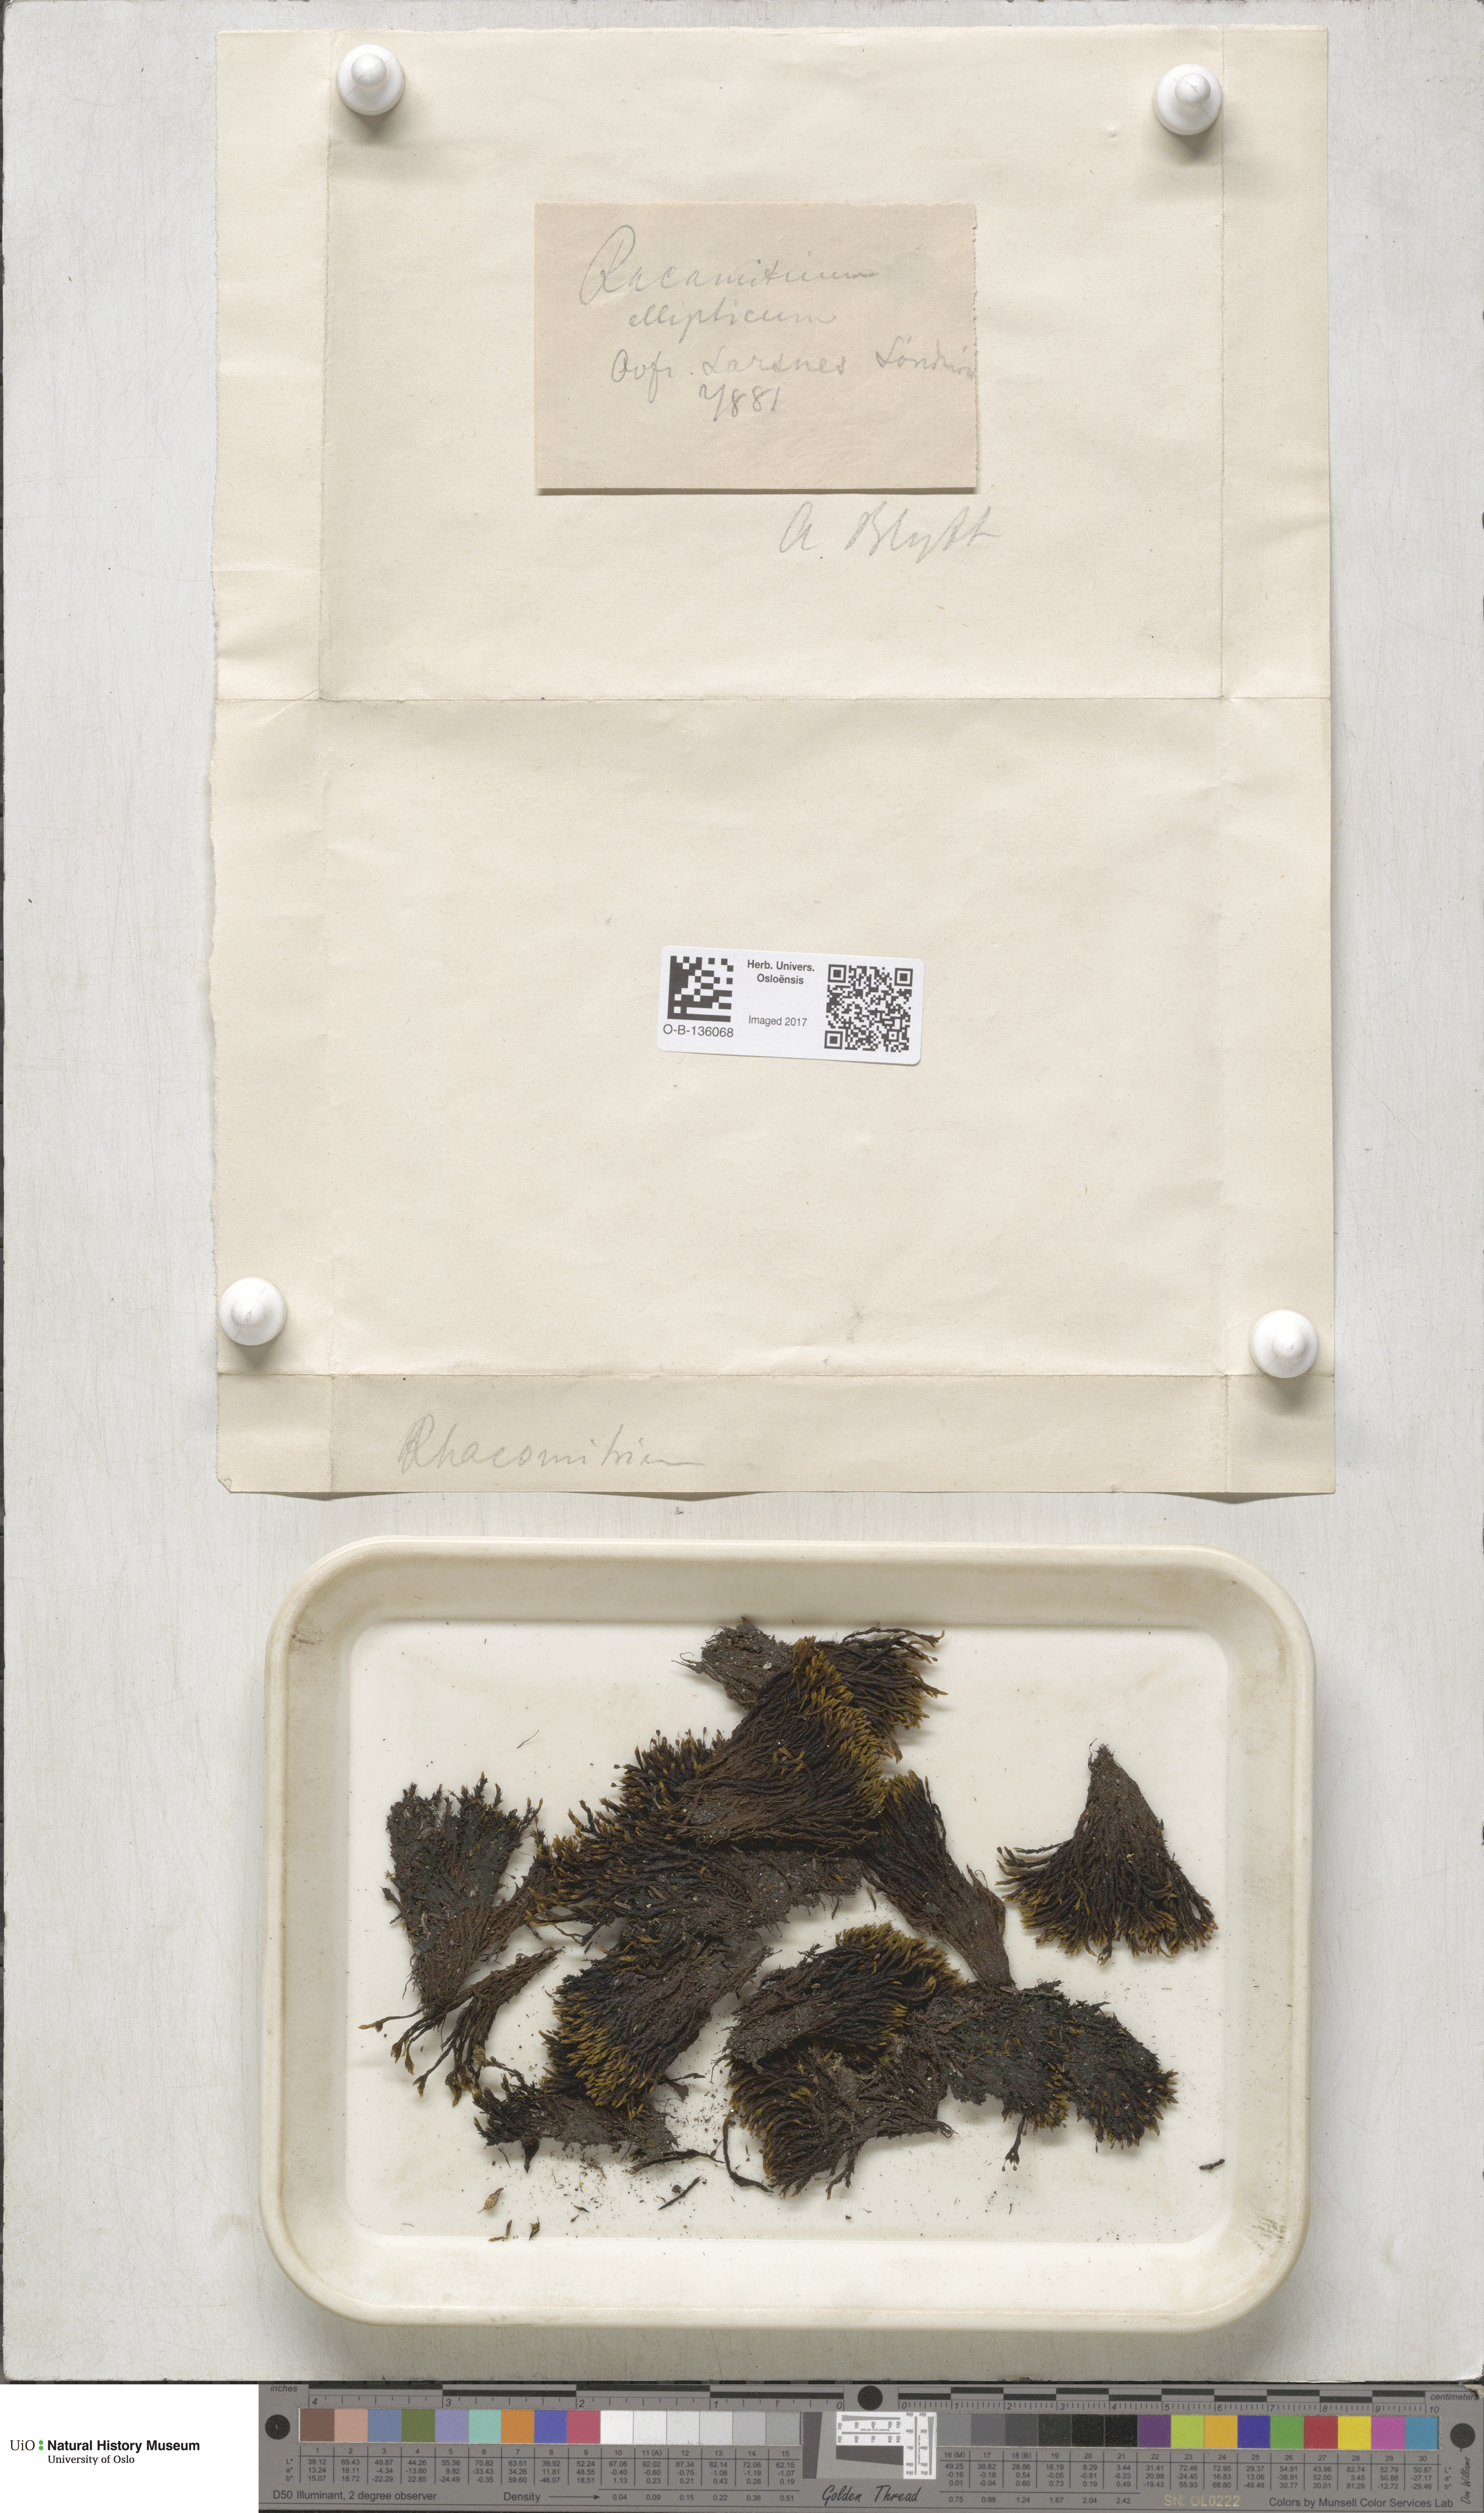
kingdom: Plantae
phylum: Bryophyta
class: Bryopsida
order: Grimmiales
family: Grimmiaceae
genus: Bucklandiella
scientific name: Bucklandiella elliptica
